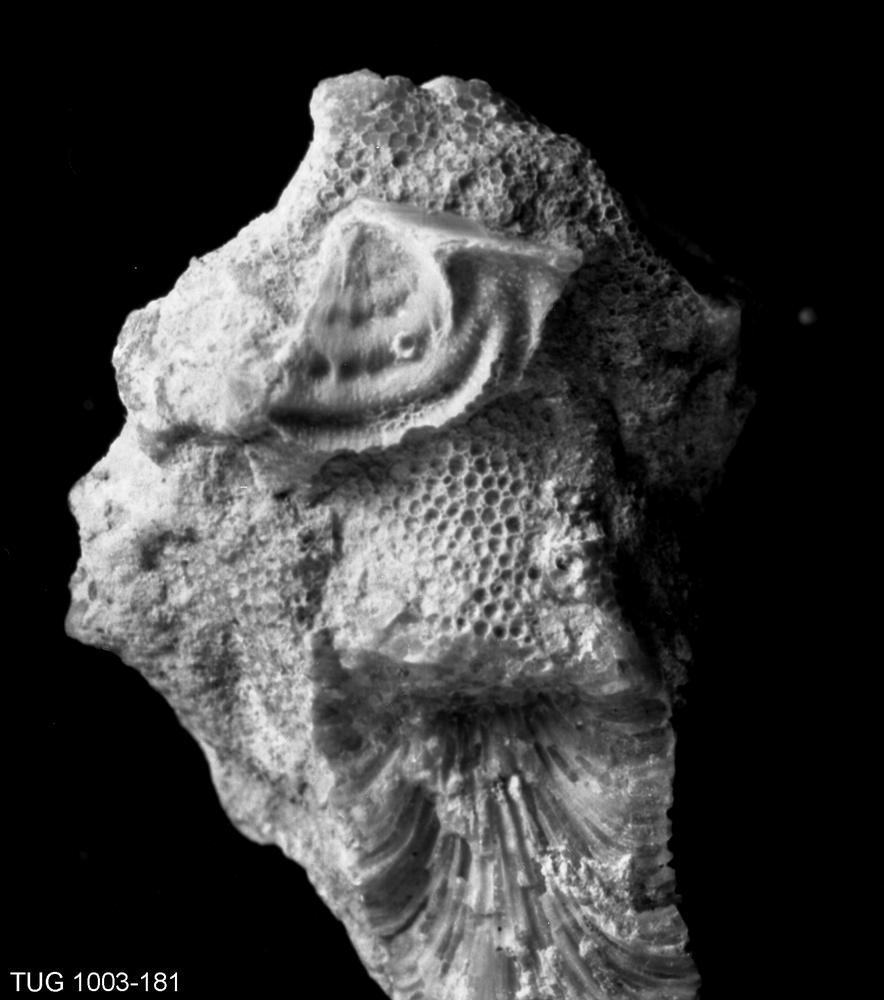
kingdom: Animalia
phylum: Brachiopoda
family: Rafinesquinidae
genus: Harjumena
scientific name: Harjumena
